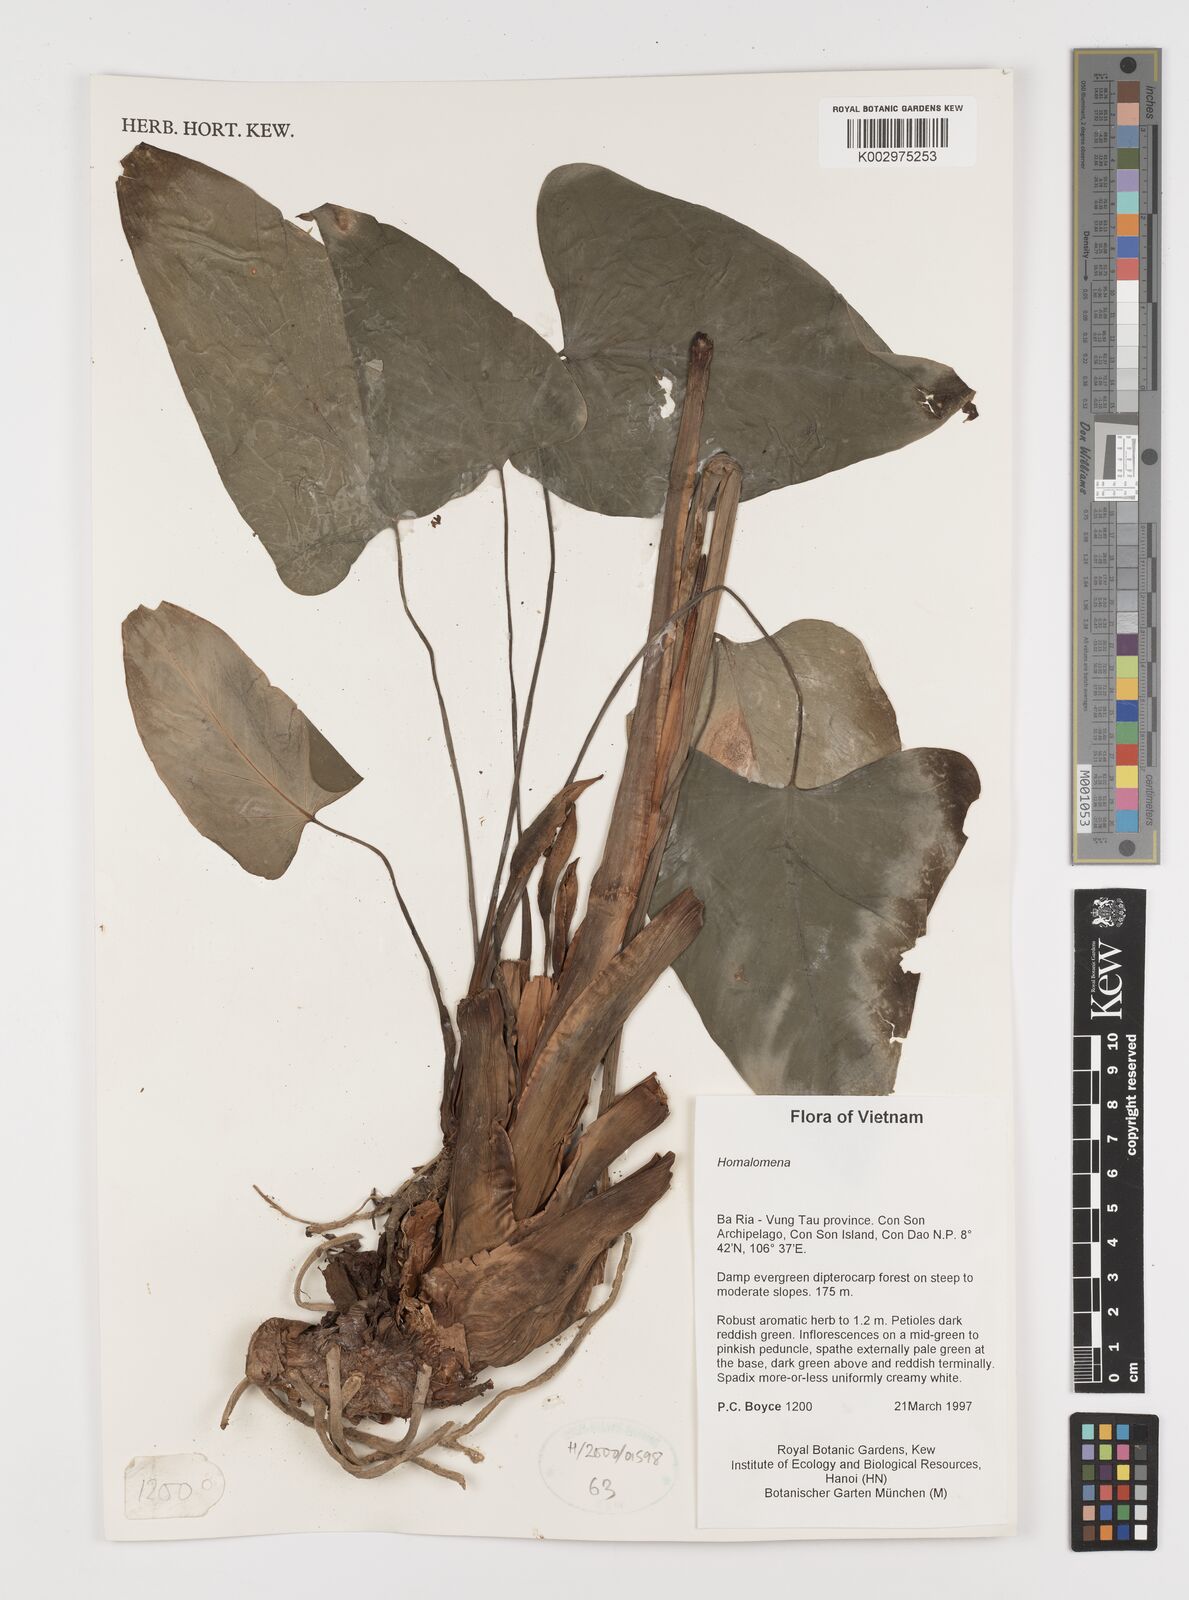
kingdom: Plantae
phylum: Tracheophyta
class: Liliopsida
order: Alismatales
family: Araceae
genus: Homalomena
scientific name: Homalomena
